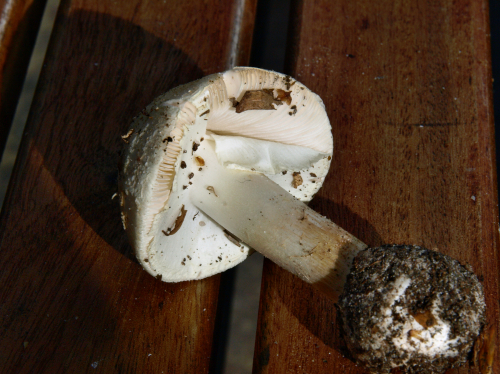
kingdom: Fungi
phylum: Basidiomycota
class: Agaricomycetes
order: Agaricales
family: Amanitaceae
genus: Amanita
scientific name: Amanita citrina
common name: False death-cap
